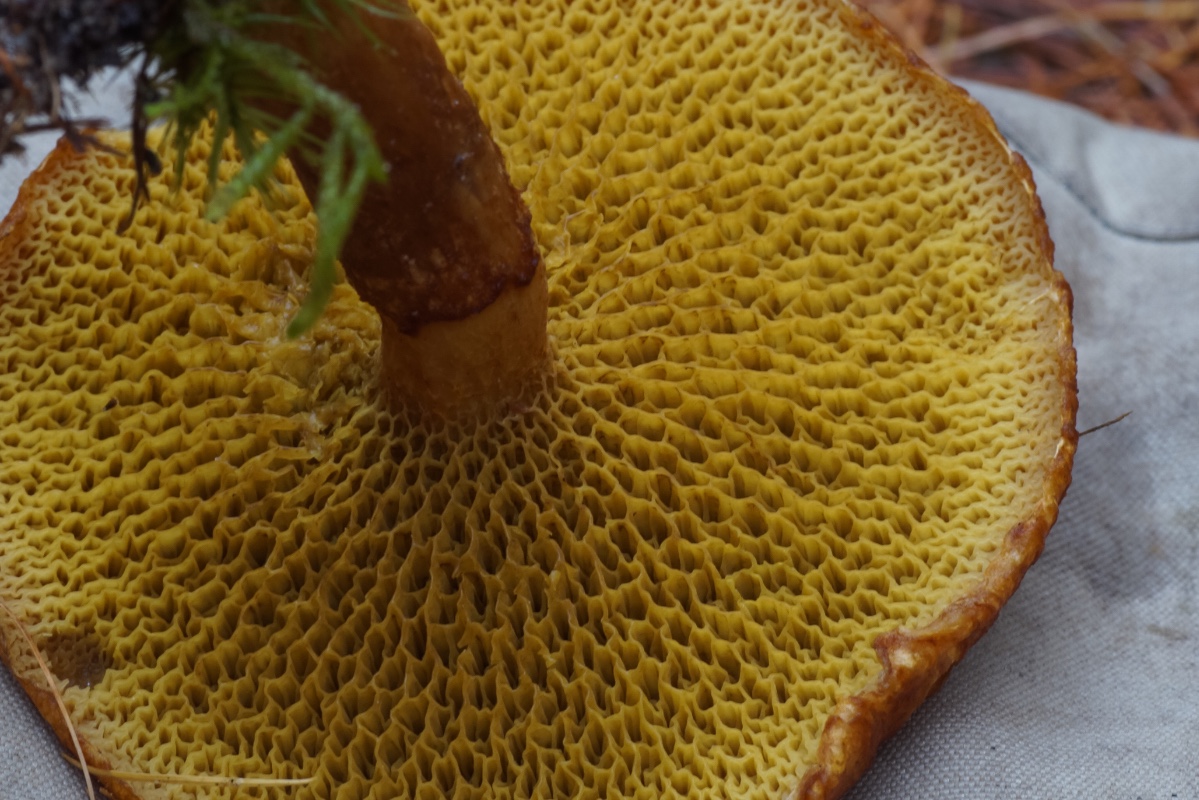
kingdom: Fungi
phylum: Basidiomycota
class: Agaricomycetes
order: Boletales
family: Suillaceae
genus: Suillus
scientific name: Suillus cavipes
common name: hulstokket slimrørhat
